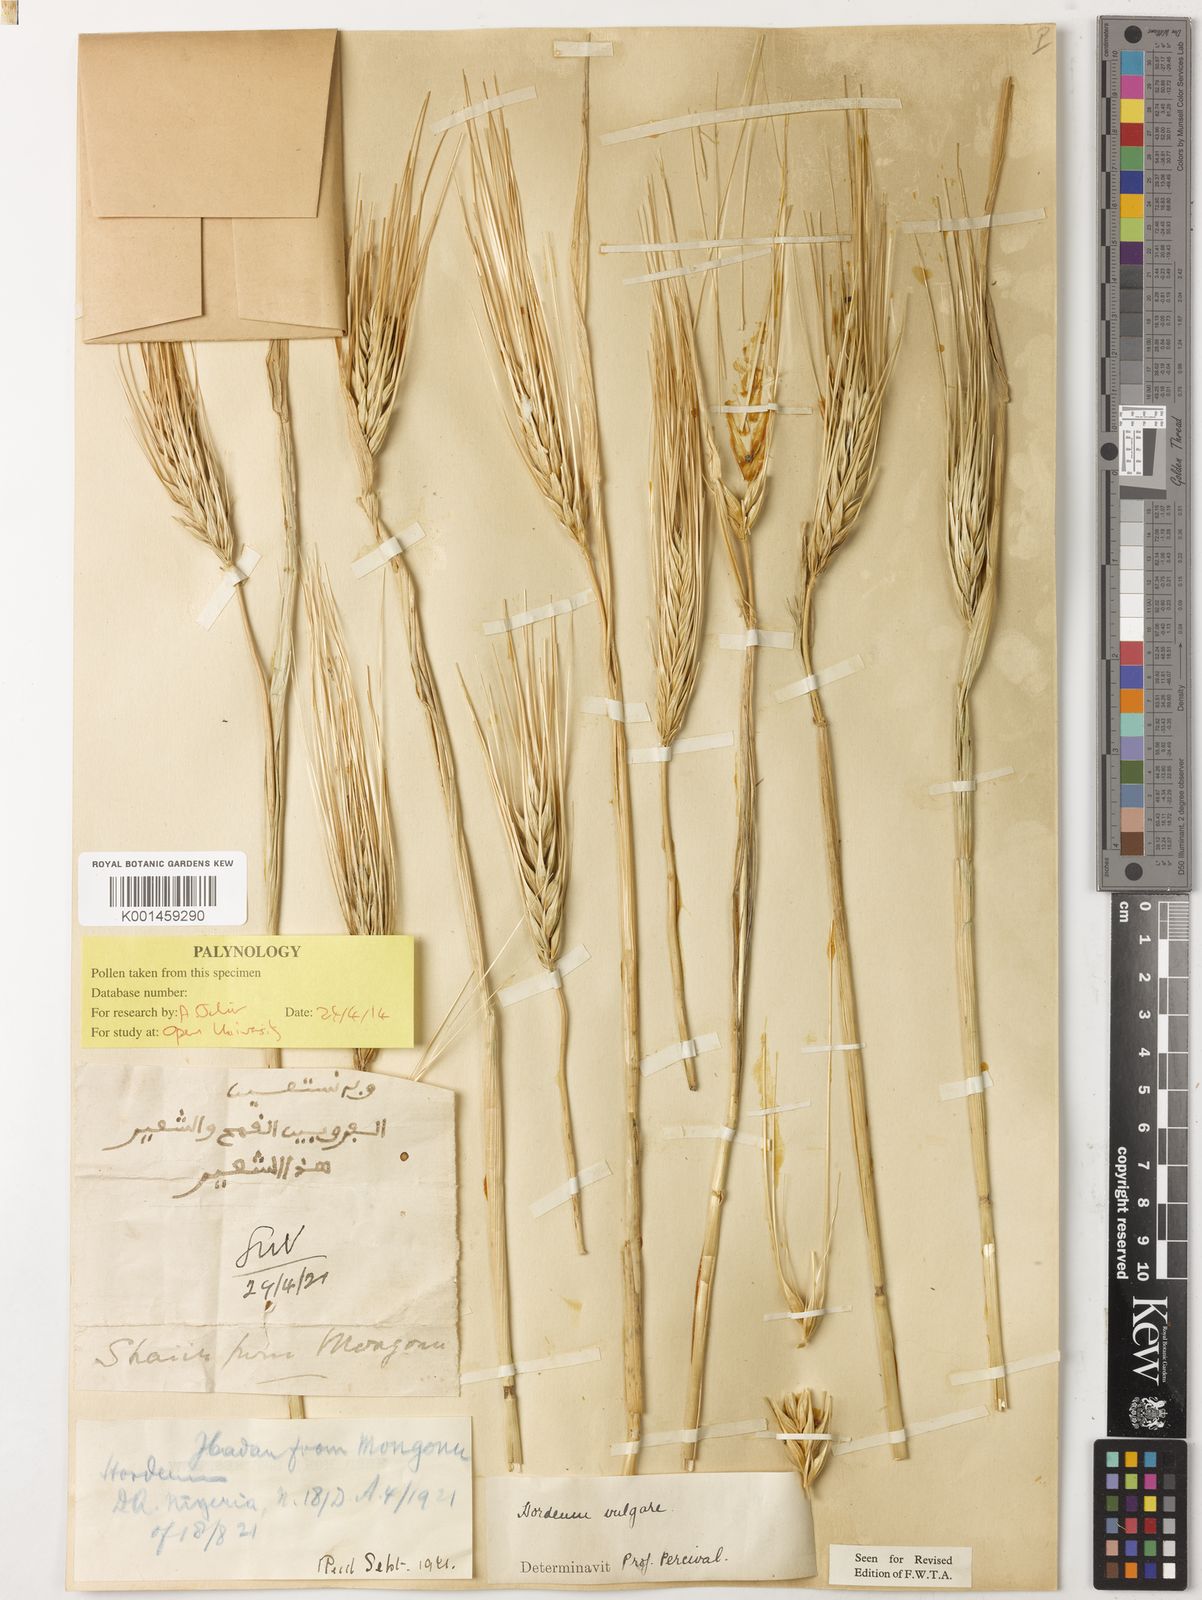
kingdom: Plantae
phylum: Tracheophyta
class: Liliopsida
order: Poales
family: Poaceae
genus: Hordeum
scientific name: Hordeum vulgare
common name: Common barley
